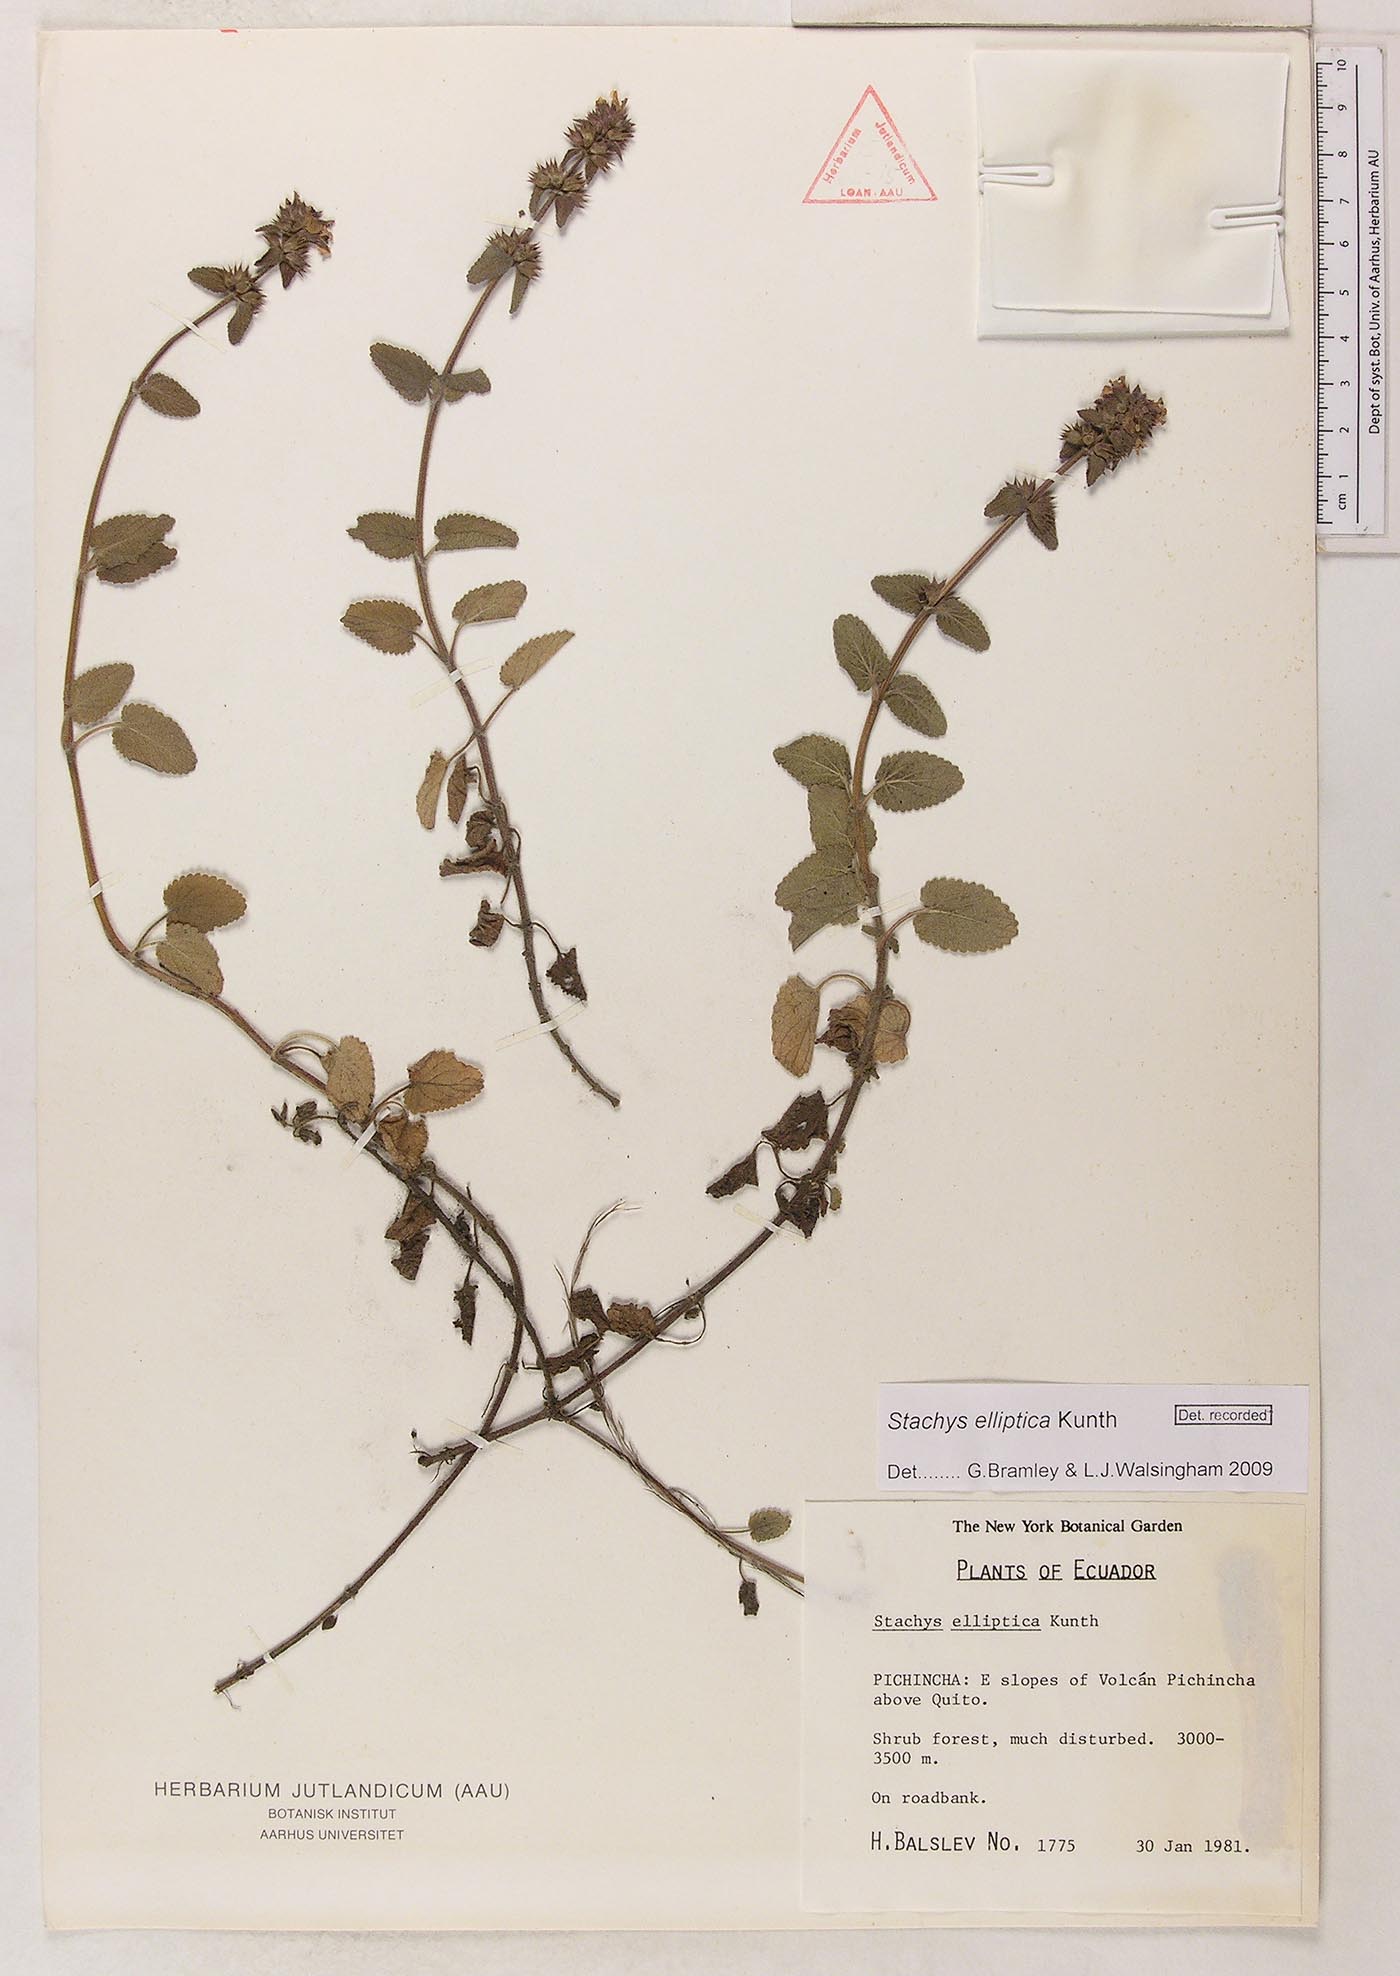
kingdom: Plantae
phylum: Tracheophyta
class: Magnoliopsida
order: Lamiales
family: Lamiaceae
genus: Stachys
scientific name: Stachys elliptica
